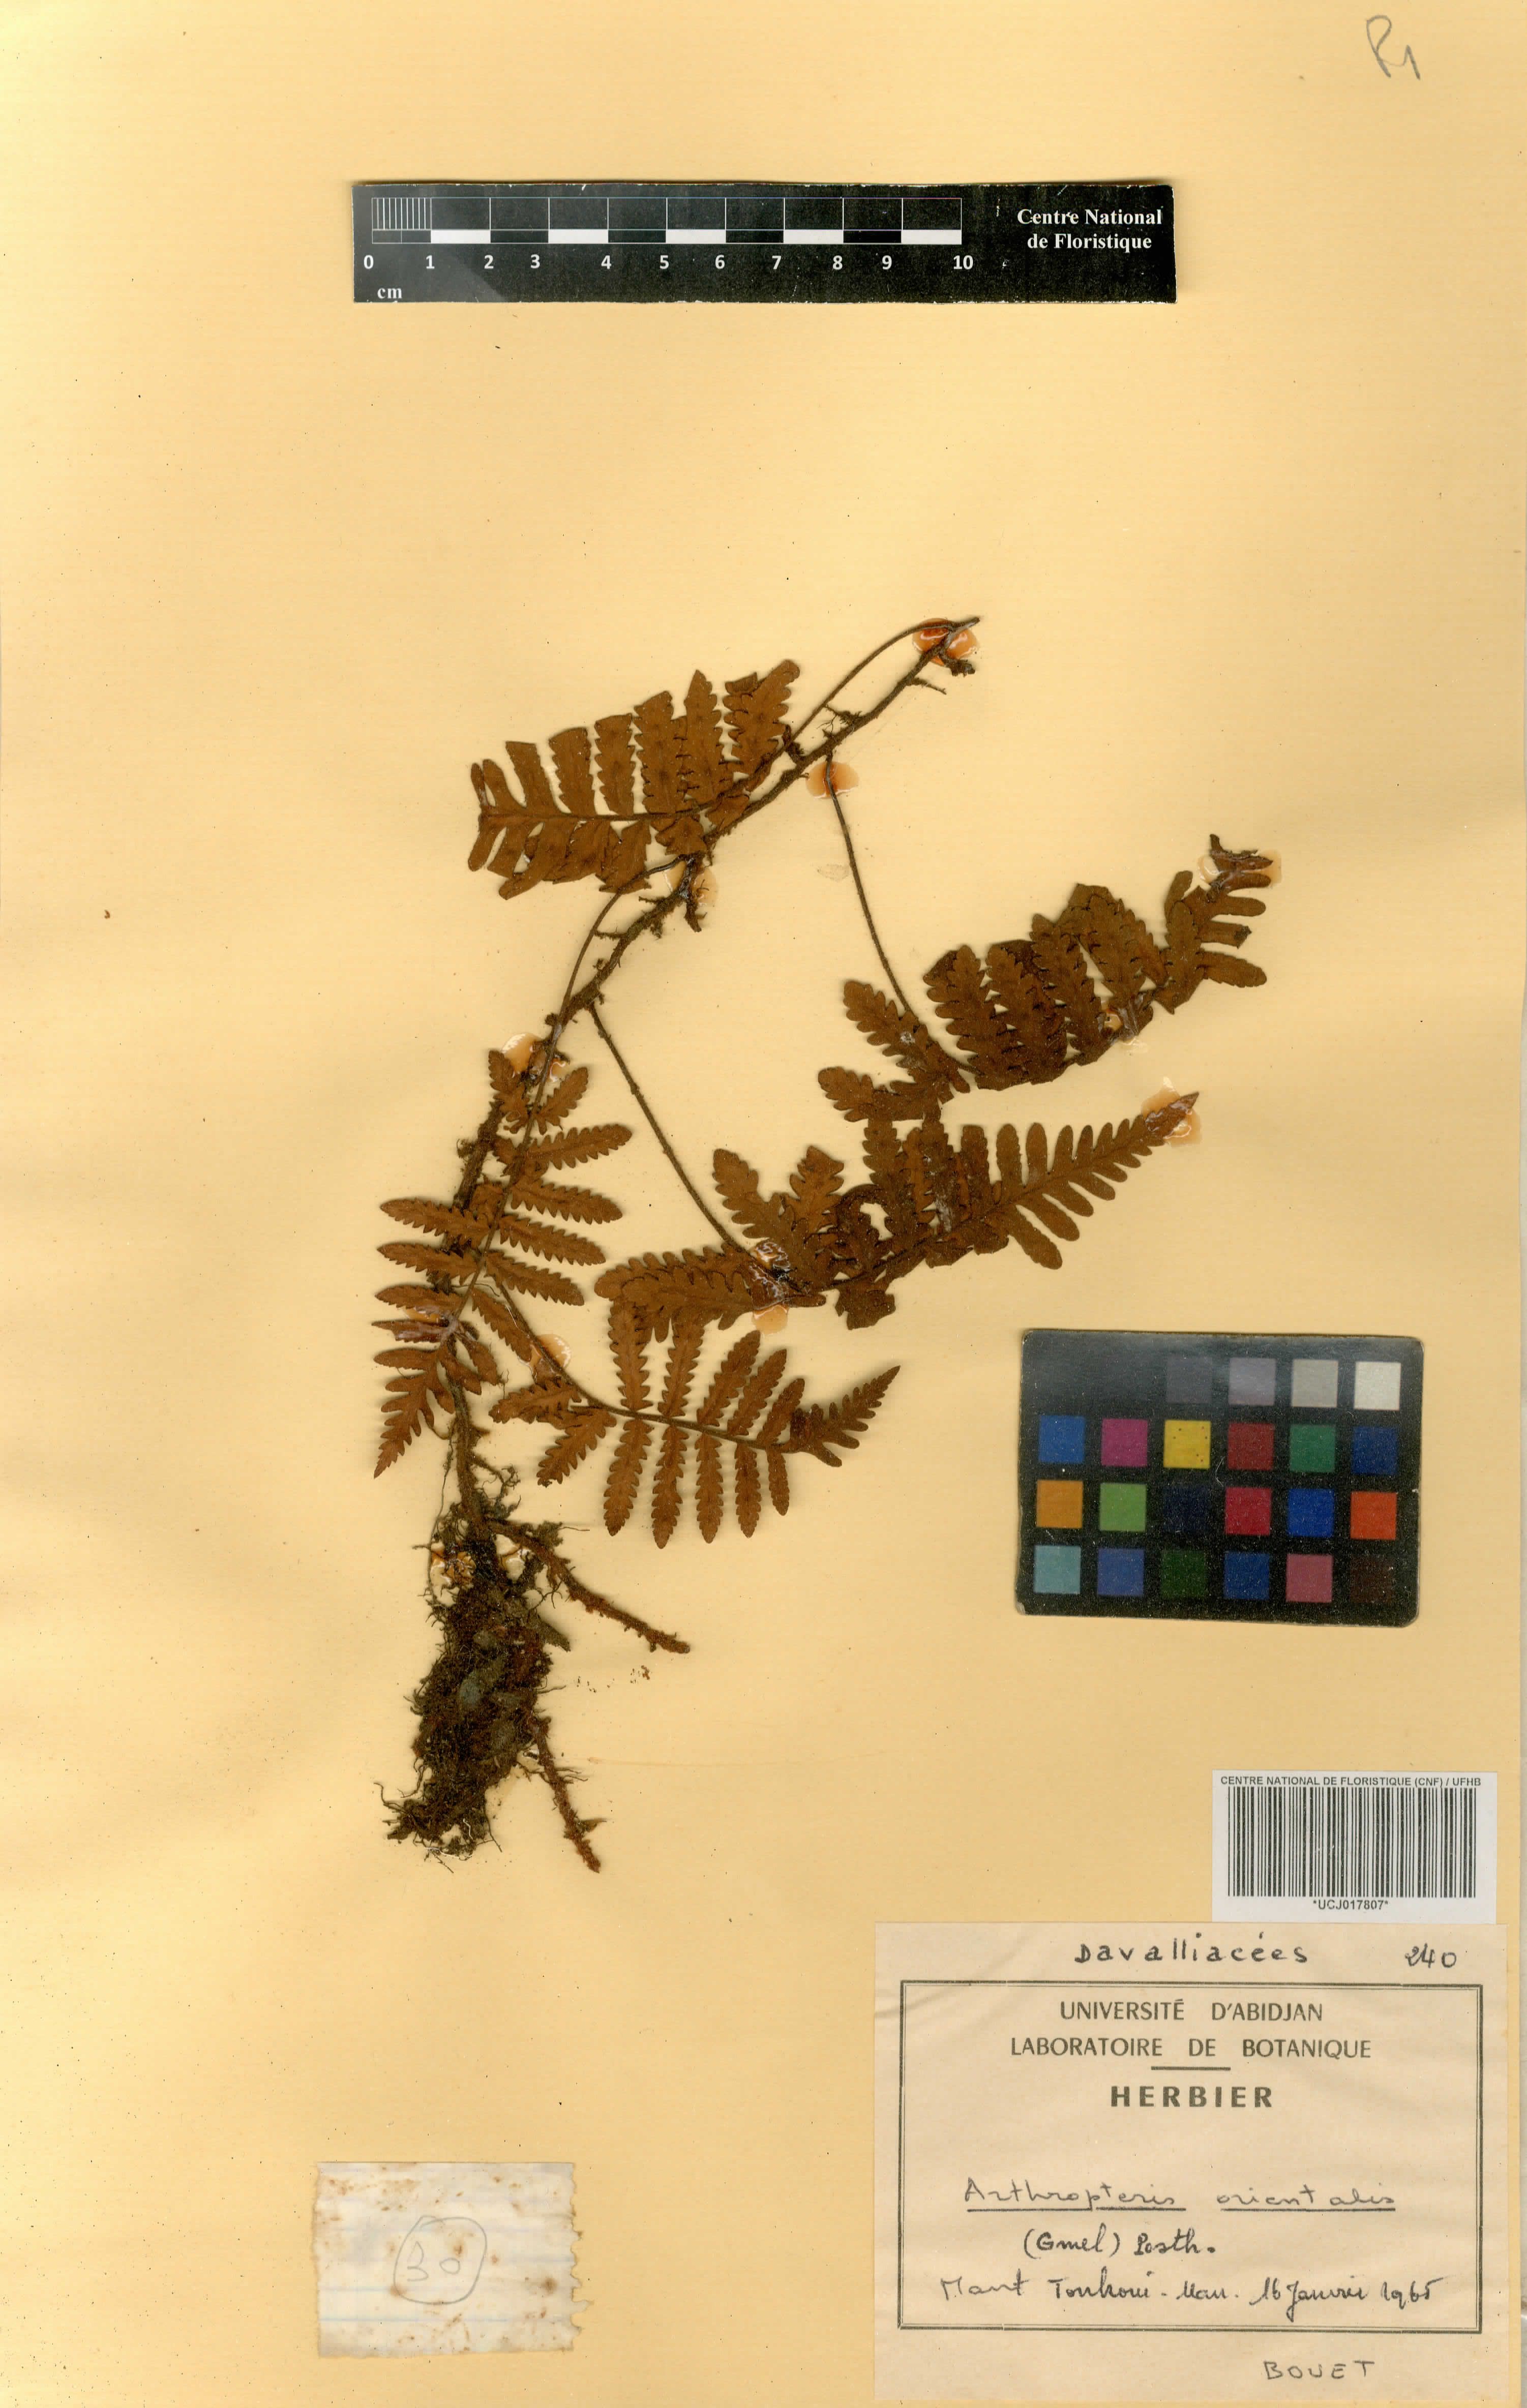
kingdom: Plantae
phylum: Tracheophyta
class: Polypodiopsida
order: Polypodiales
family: Tectariaceae
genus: Arthropteris
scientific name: Arthropteris orientalis
